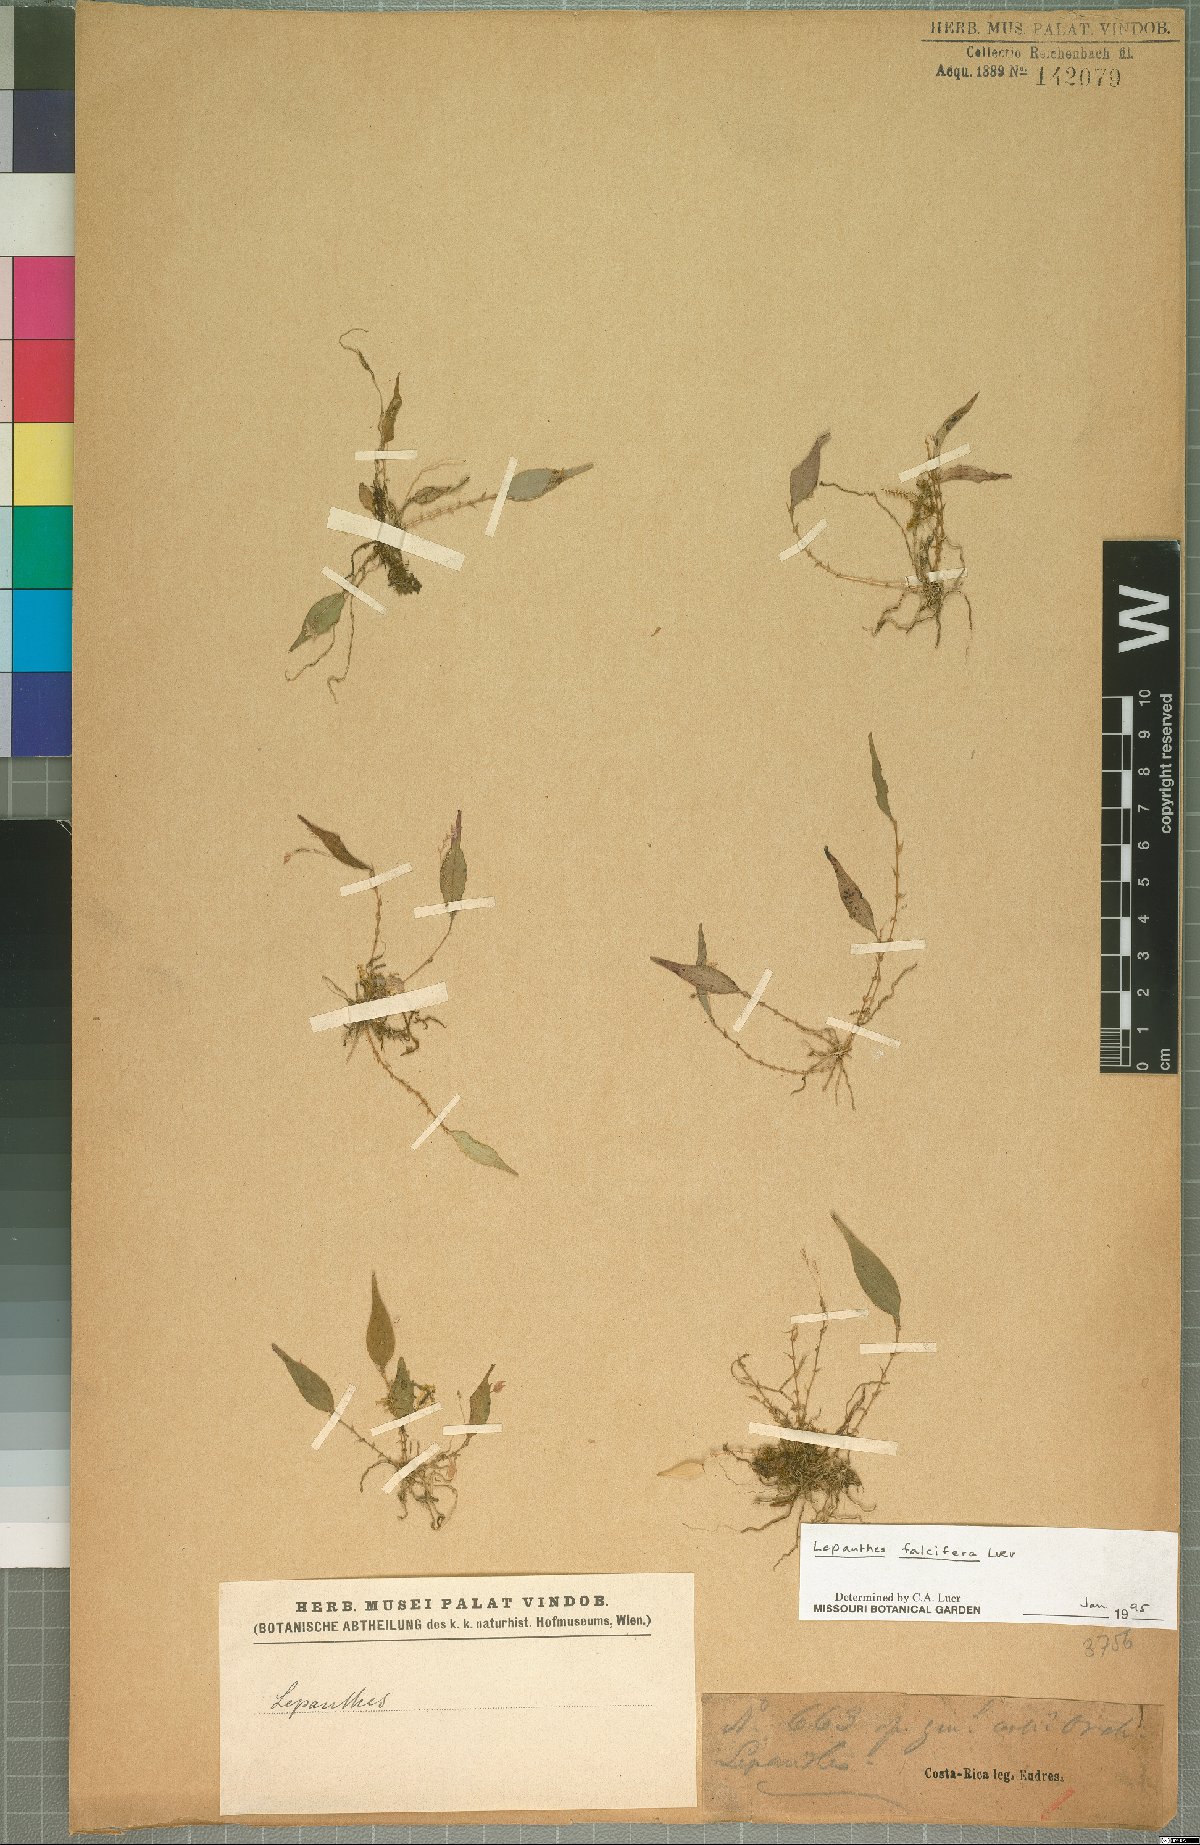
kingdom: Plantae
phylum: Tracheophyta
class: Liliopsida
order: Asparagales
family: Orchidaceae
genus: Lepanthes
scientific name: Lepanthes falcifera
